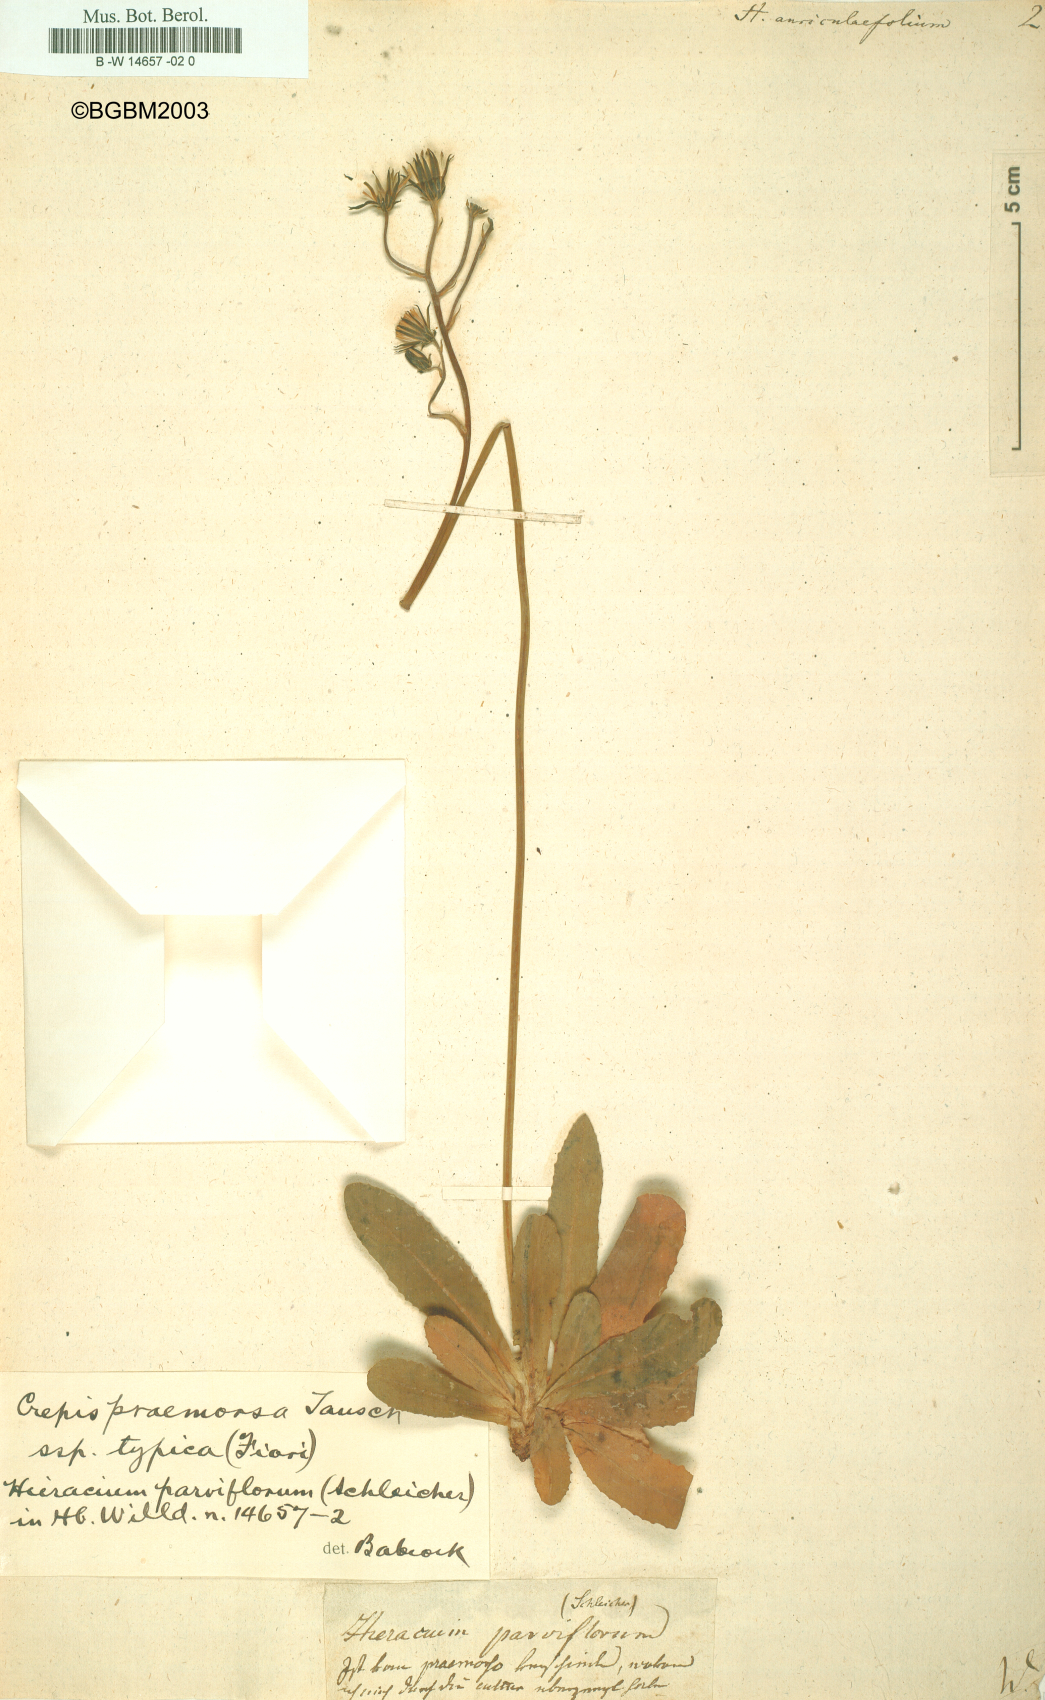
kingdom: Plantae
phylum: Tracheophyta
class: Magnoliopsida
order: Asterales
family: Asteraceae
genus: Hieracium
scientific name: Hieracium auriculifolium
